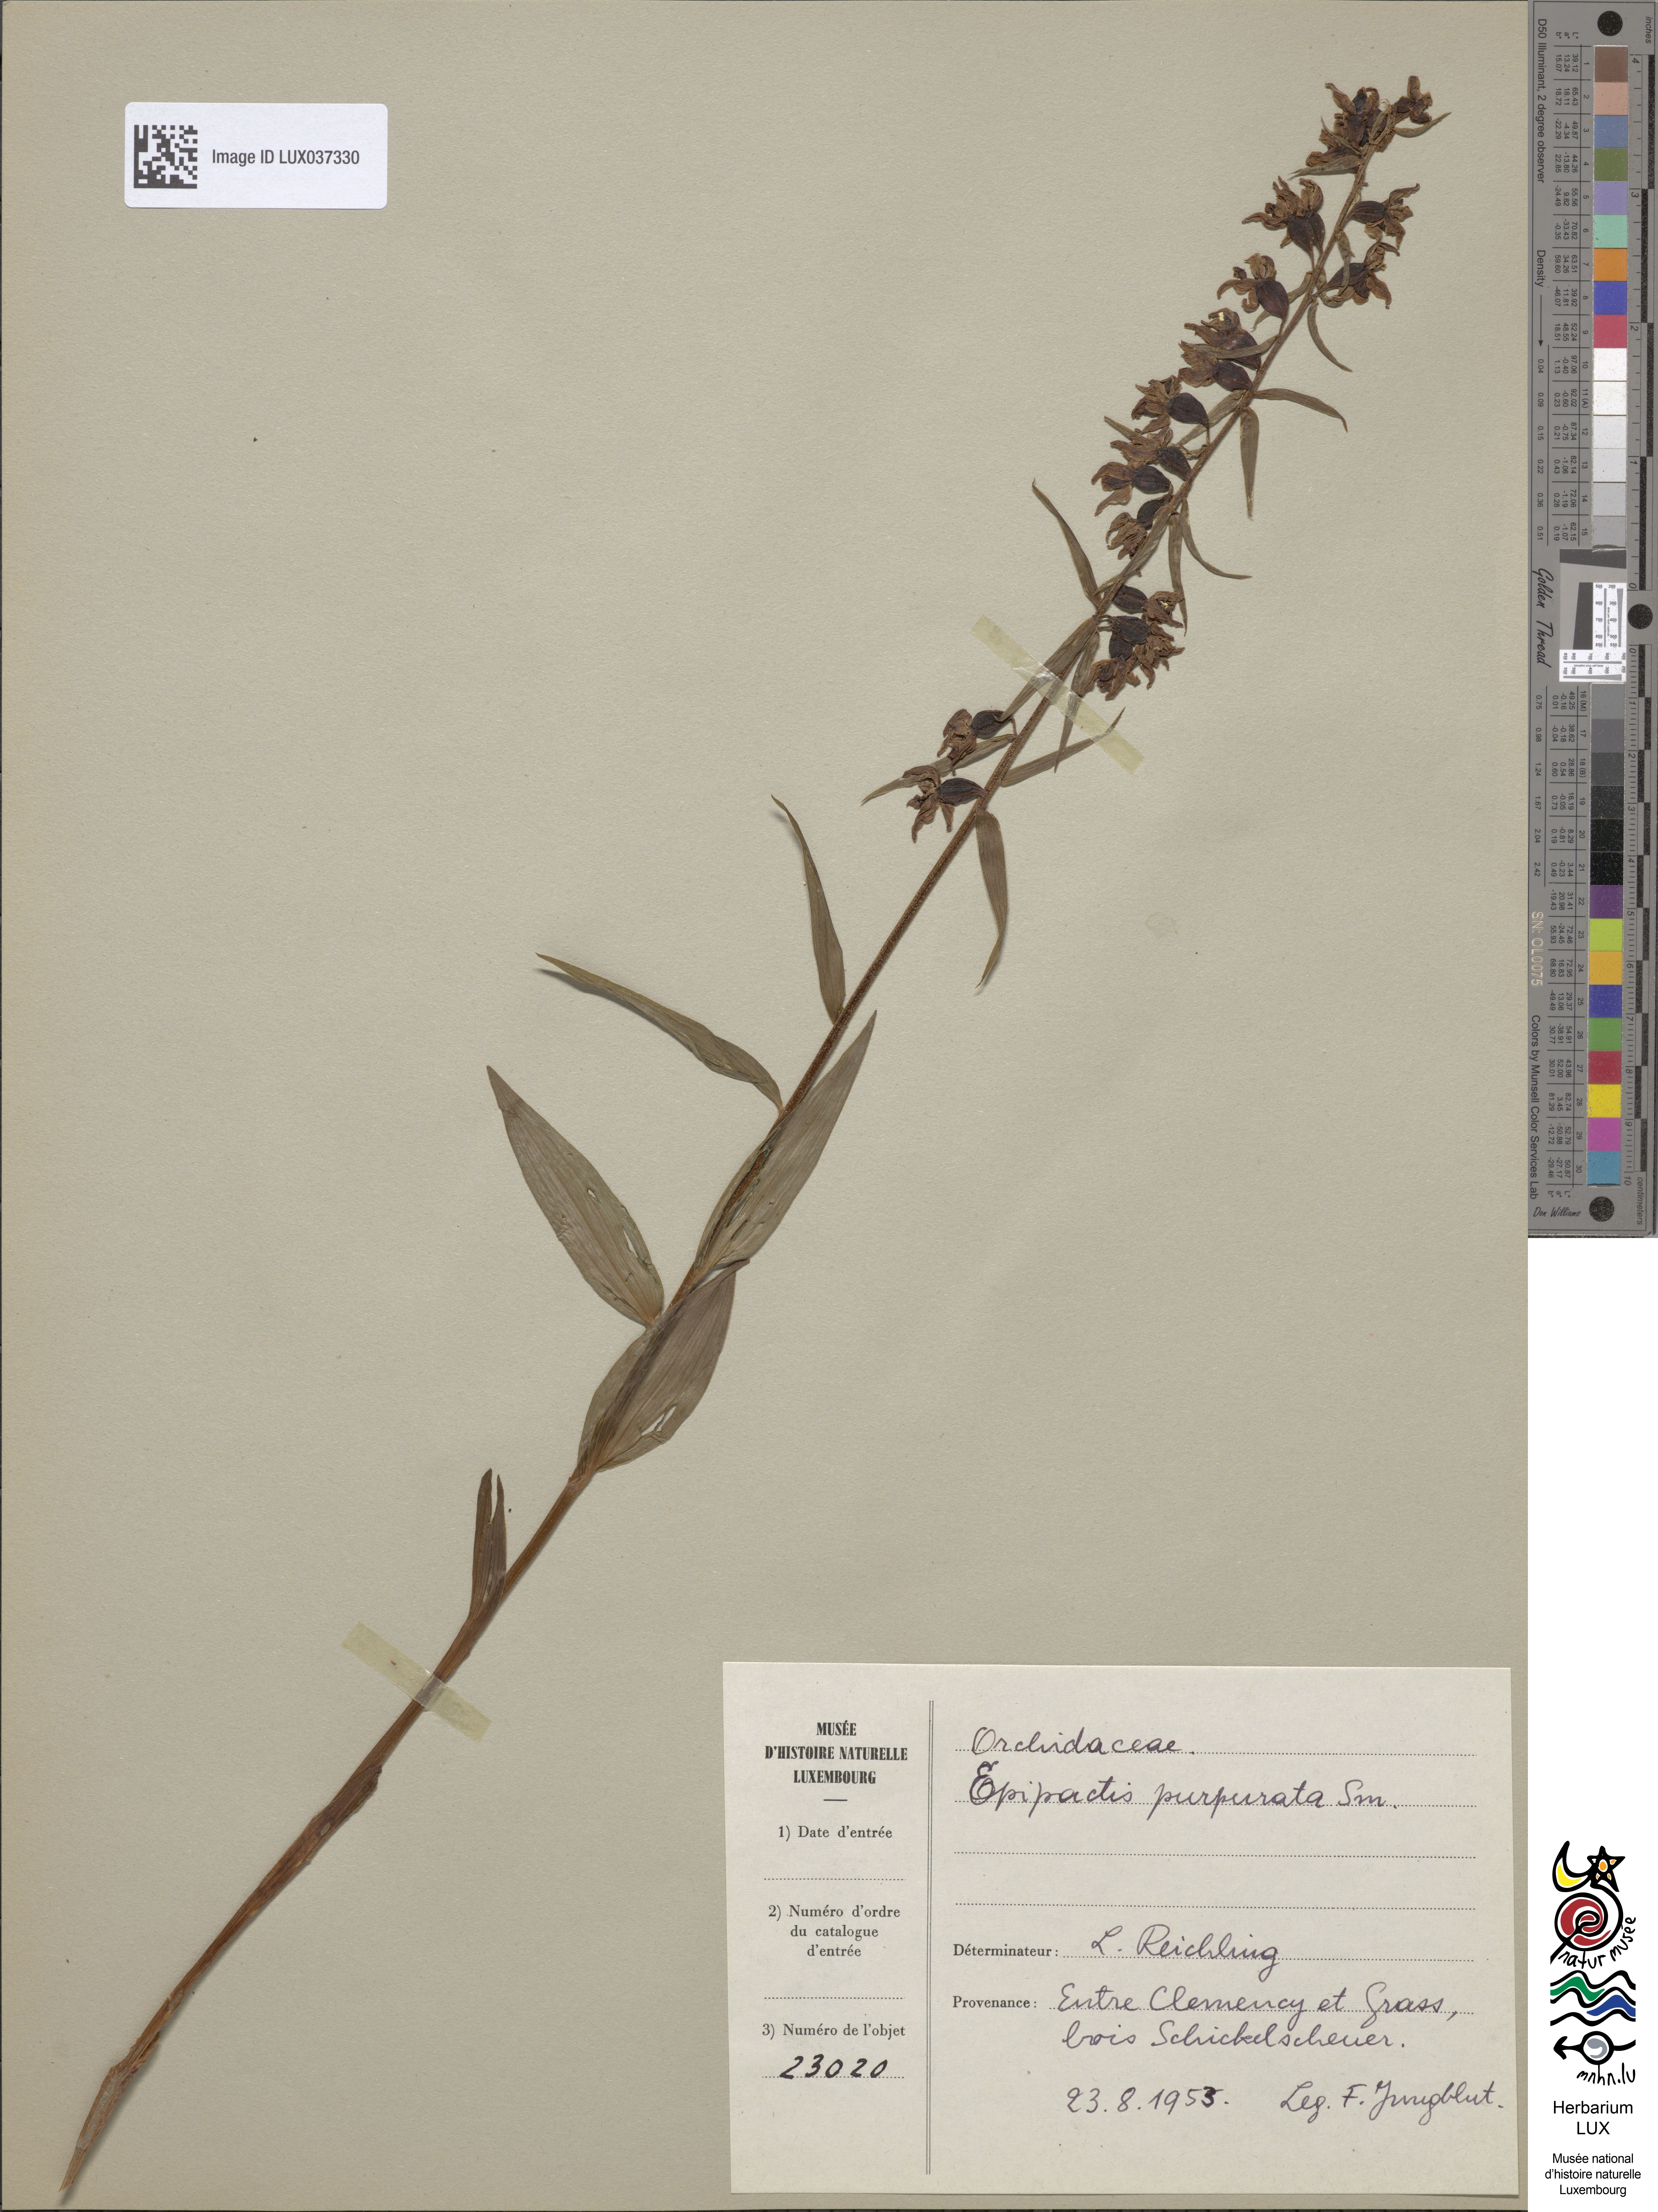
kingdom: Plantae
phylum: Tracheophyta
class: Liliopsida
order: Asparagales
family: Orchidaceae
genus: Epipactis
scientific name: Epipactis purpurata
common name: Violet helleborine
